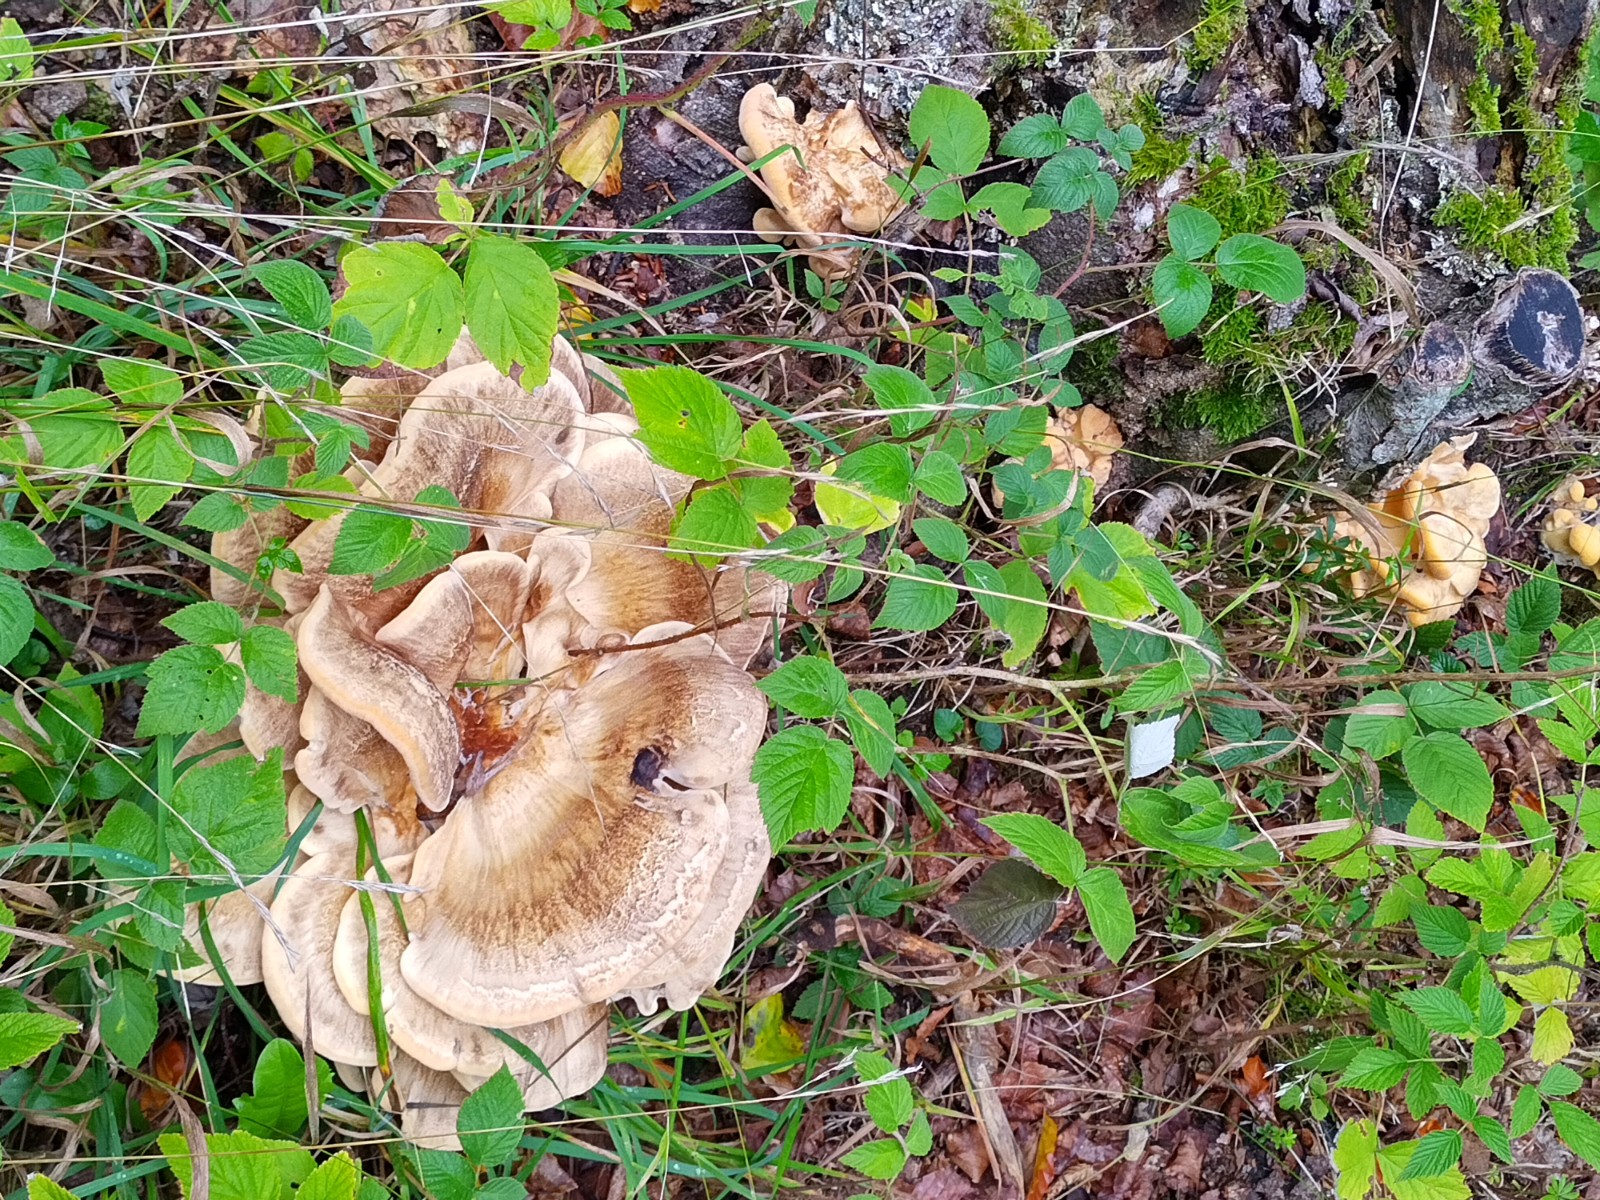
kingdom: Fungi
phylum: Basidiomycota
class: Agaricomycetes
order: Polyporales
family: Meripilaceae
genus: Meripilus
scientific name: Meripilus giganteus
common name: kæmpeporesvamp
